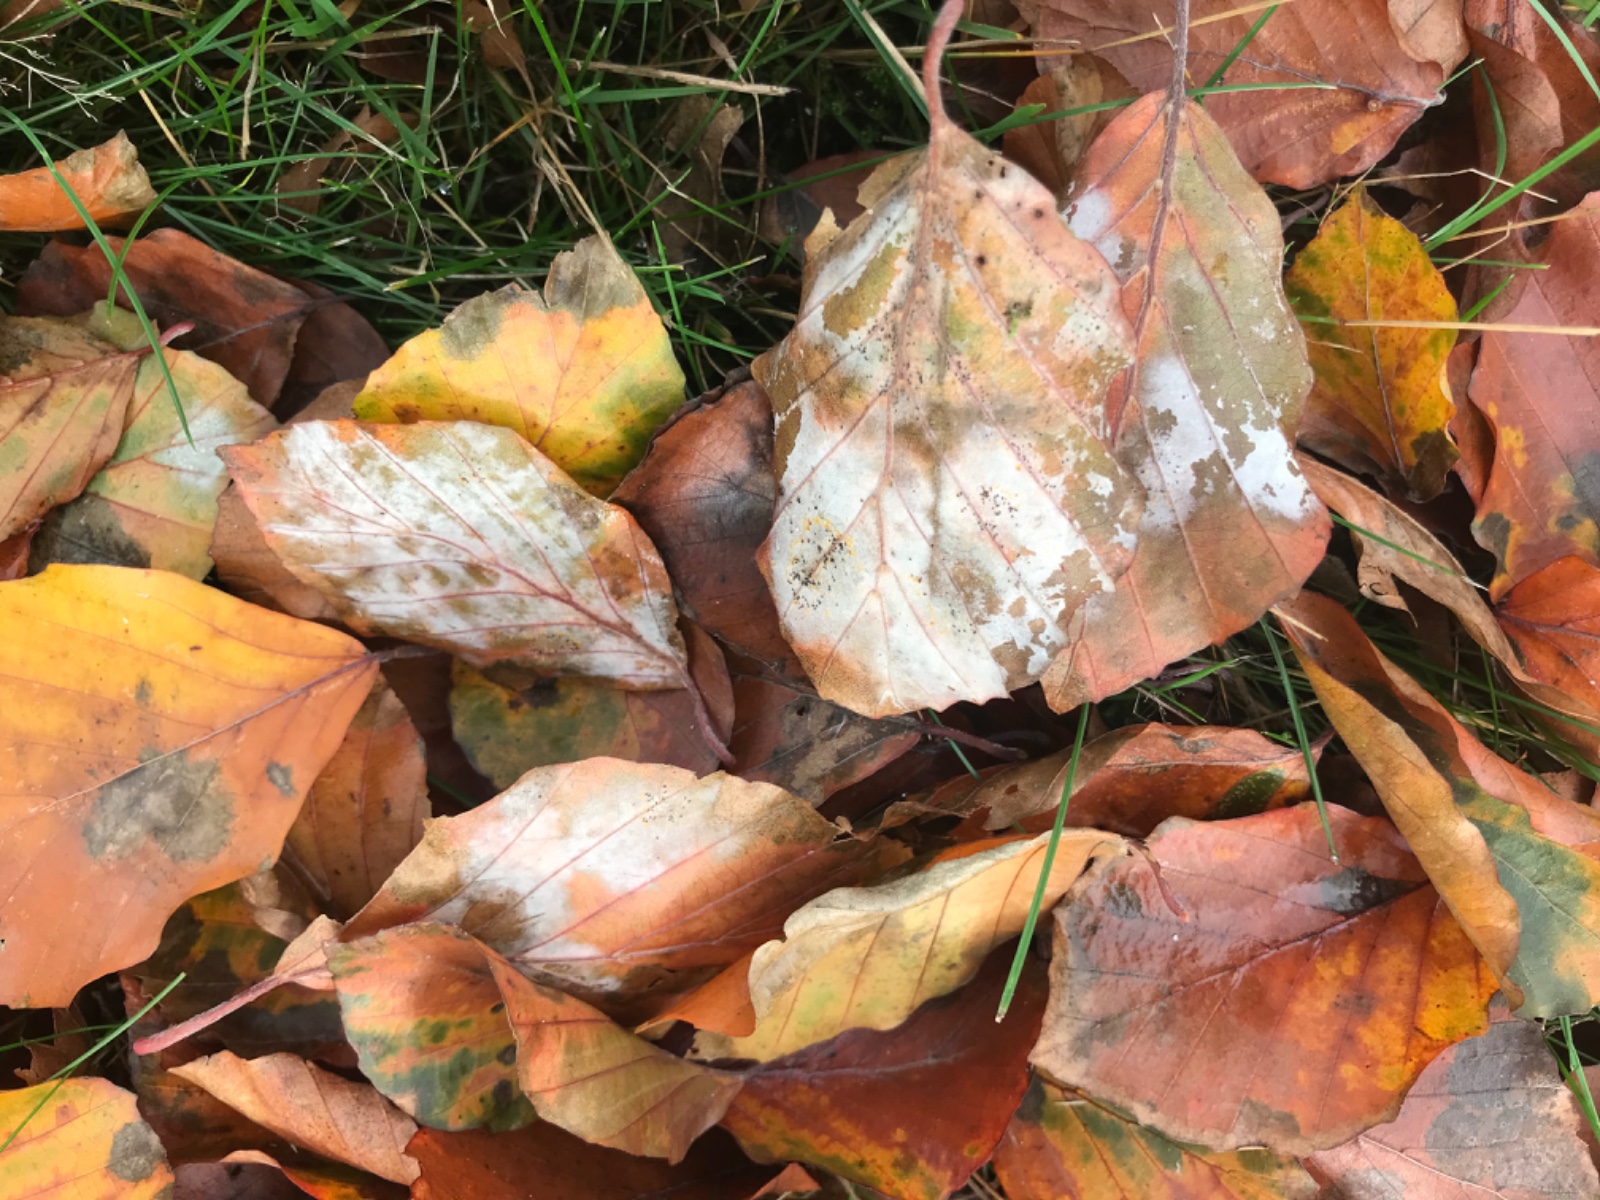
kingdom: Fungi
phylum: Ascomycota
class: Leotiomycetes
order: Helotiales
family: Erysiphaceae
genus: Phyllactinia
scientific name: Phyllactinia orbicularis
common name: bøge-meldug
